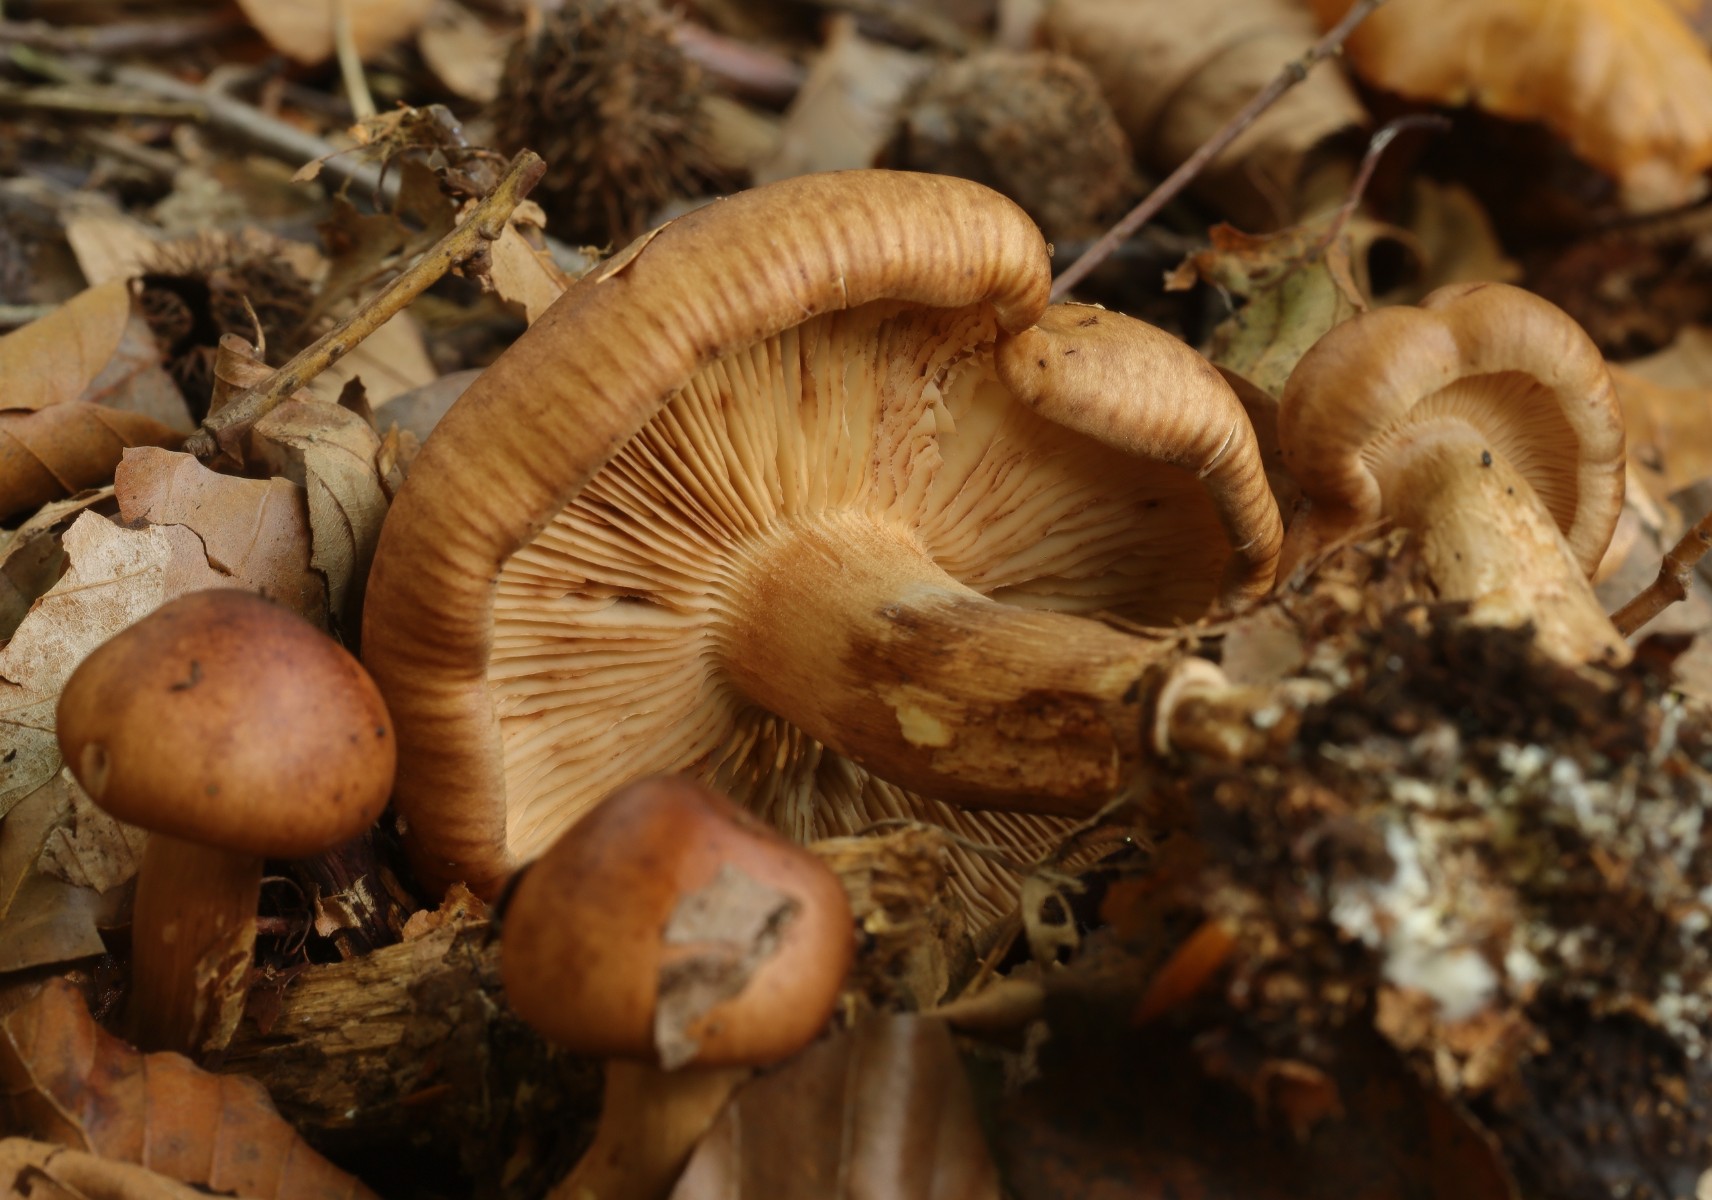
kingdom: Fungi
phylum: Basidiomycota
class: Agaricomycetes
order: Agaricales
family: Tricholomataceae
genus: Tricholoma
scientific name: Tricholoma ustale
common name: sveden ridderhat
